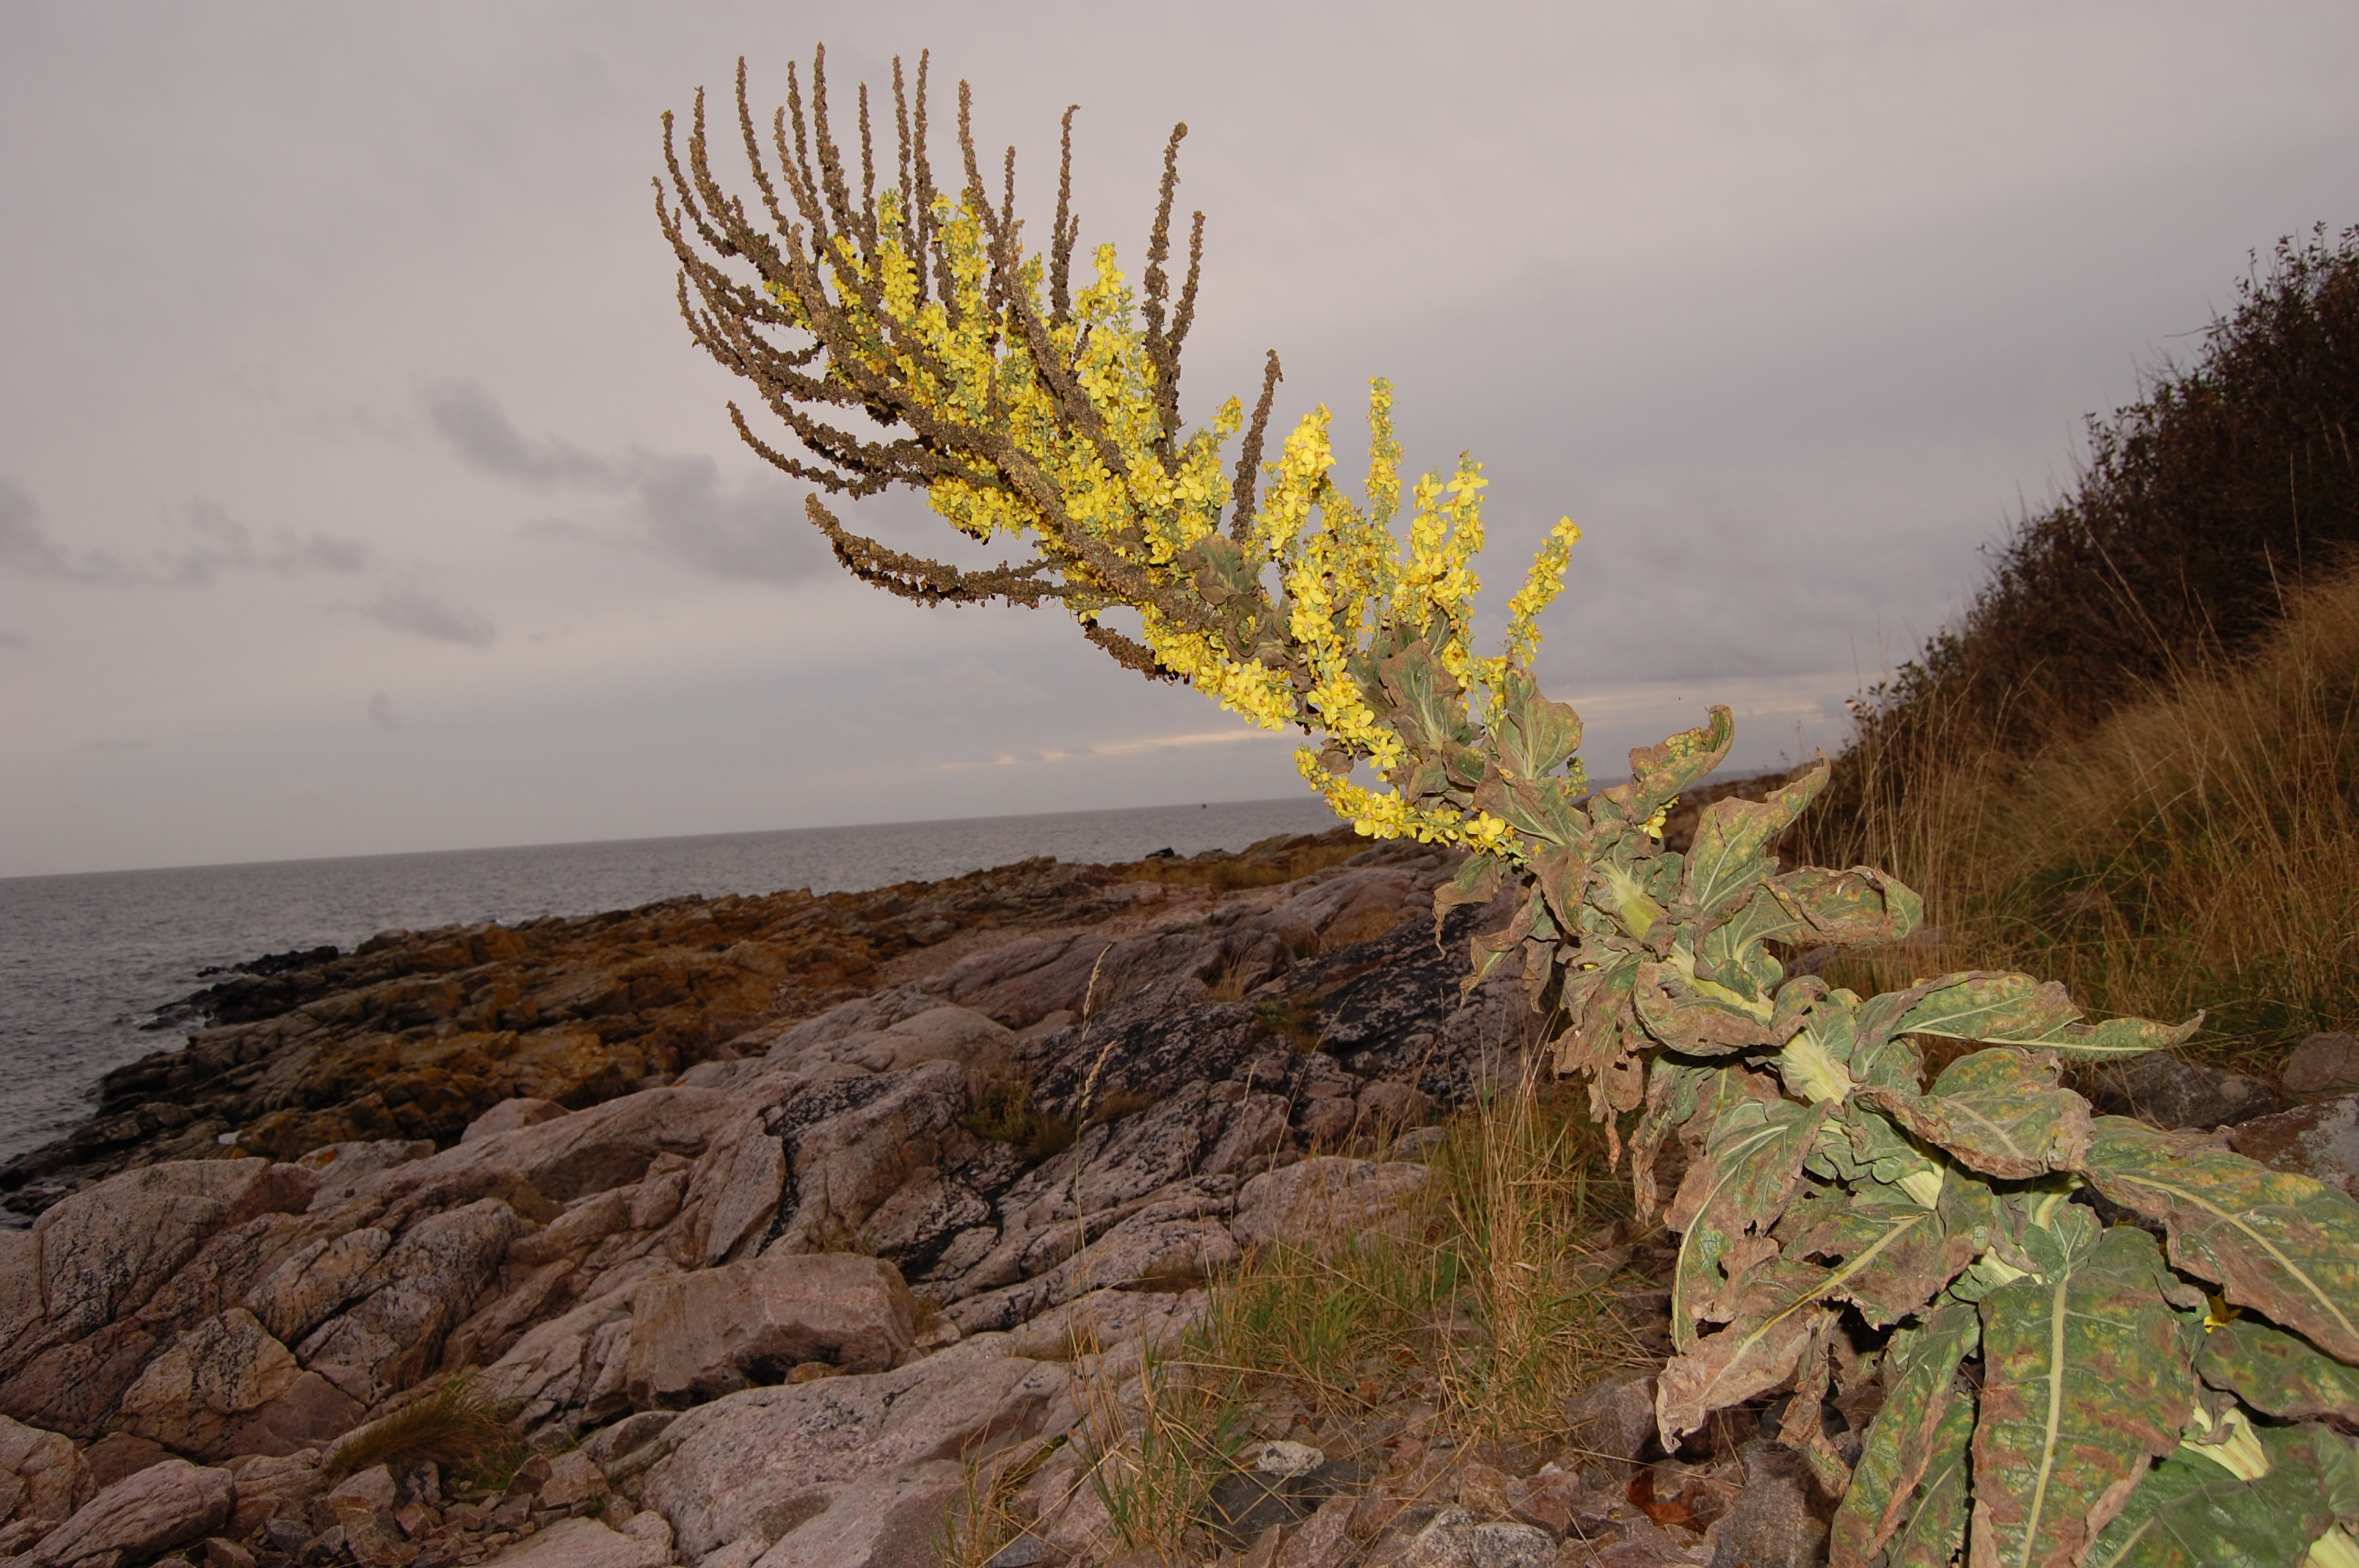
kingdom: Plantae
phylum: Tracheophyta
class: Magnoliopsida
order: Lamiales
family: Scrophulariaceae
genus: Verbascum
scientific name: Verbascum speciosum
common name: Hungarian mullein
